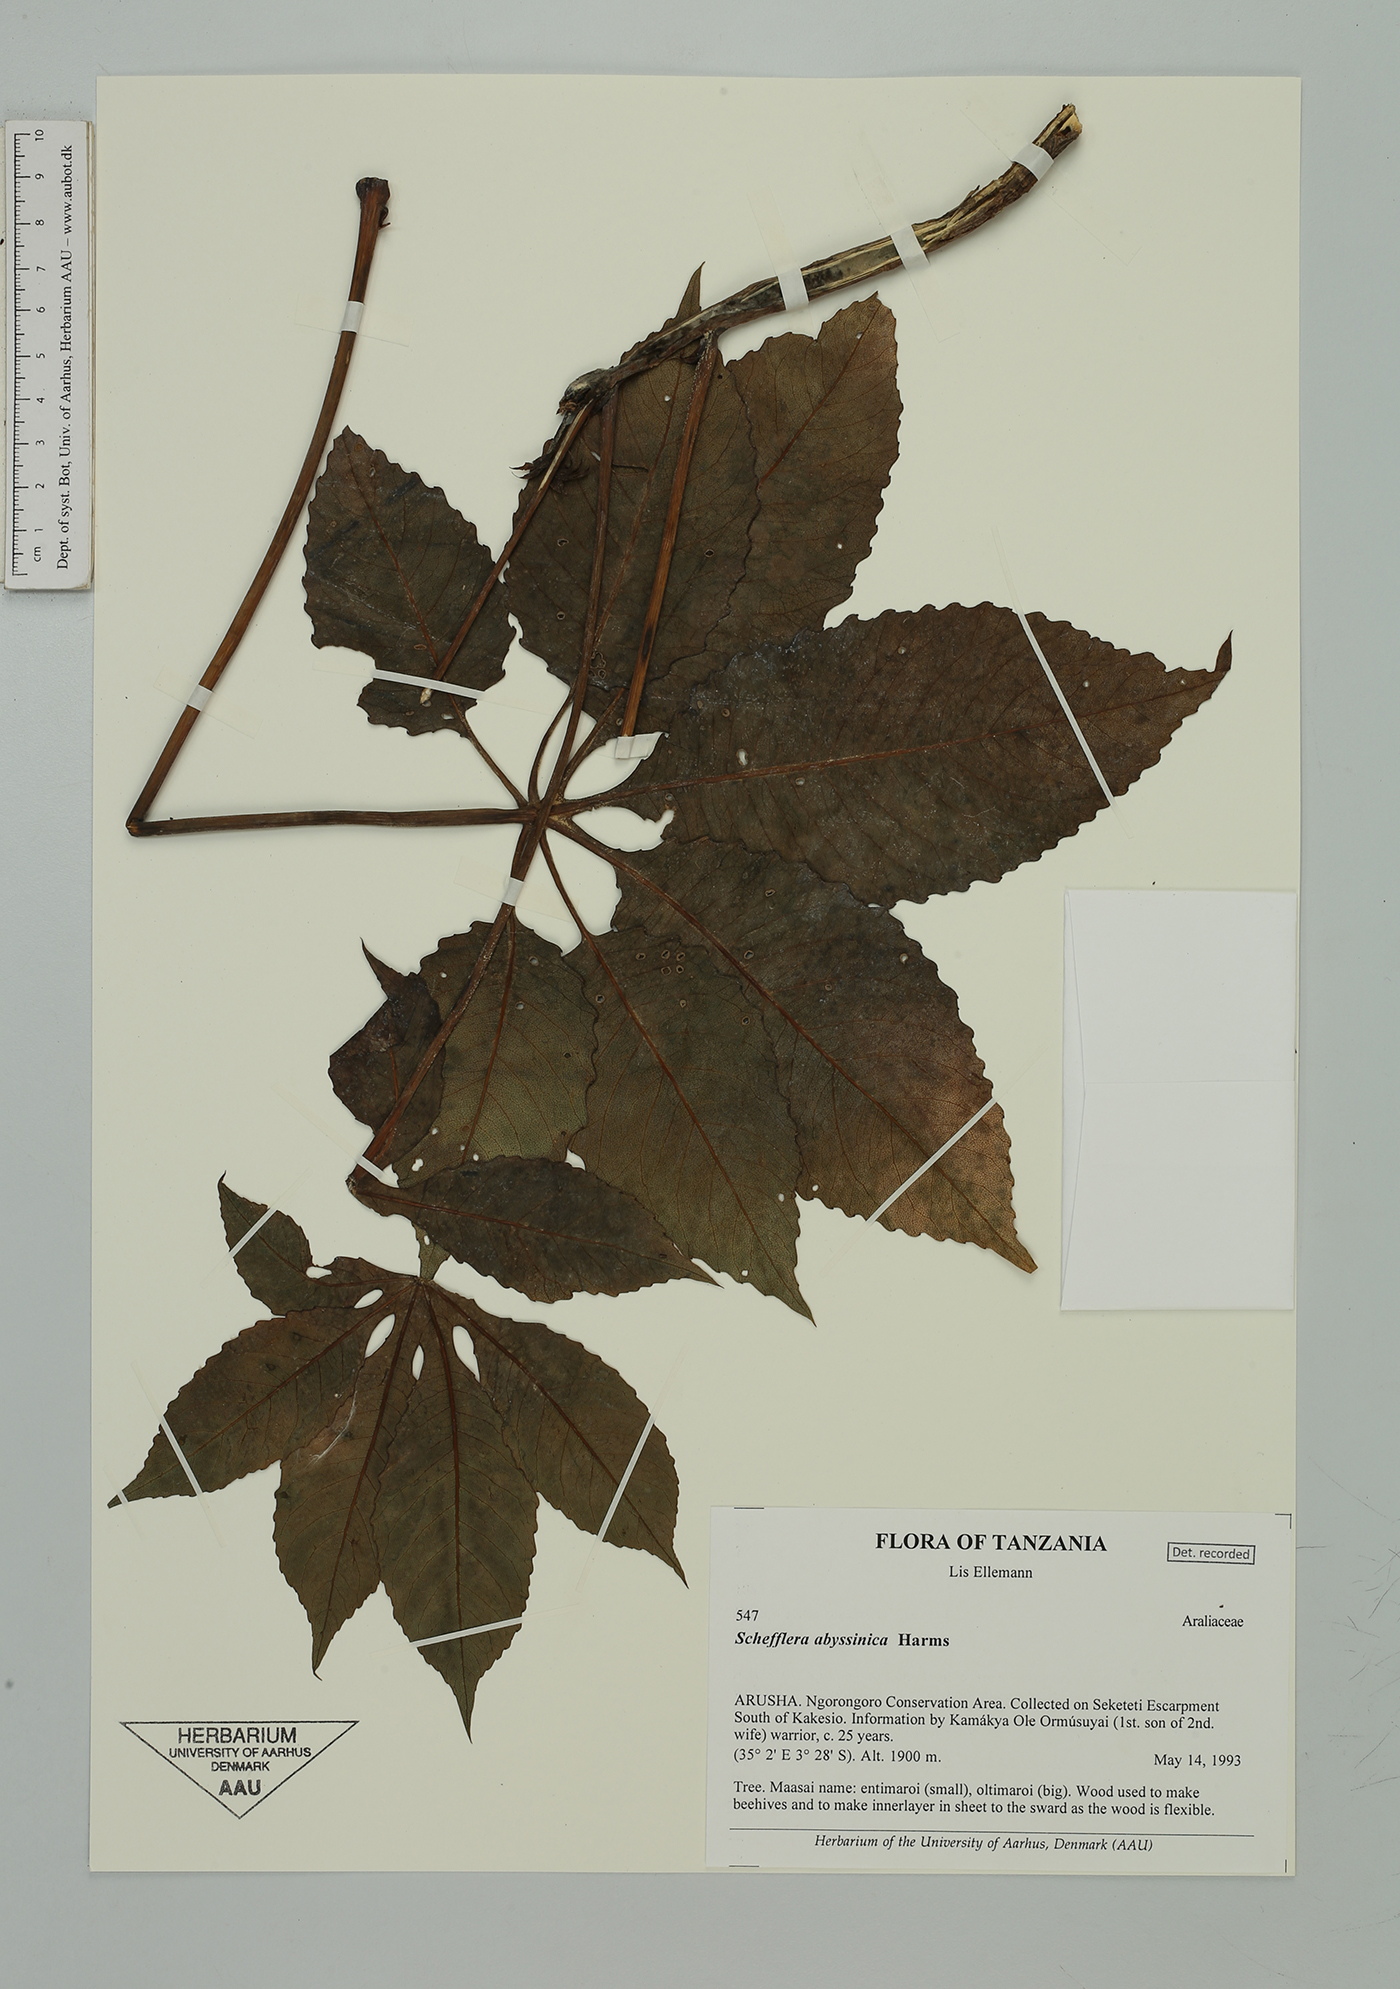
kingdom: Plantae
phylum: Tracheophyta
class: Magnoliopsida
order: Apiales
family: Araliaceae
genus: Astropanax
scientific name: Astropanax abyssinicum
